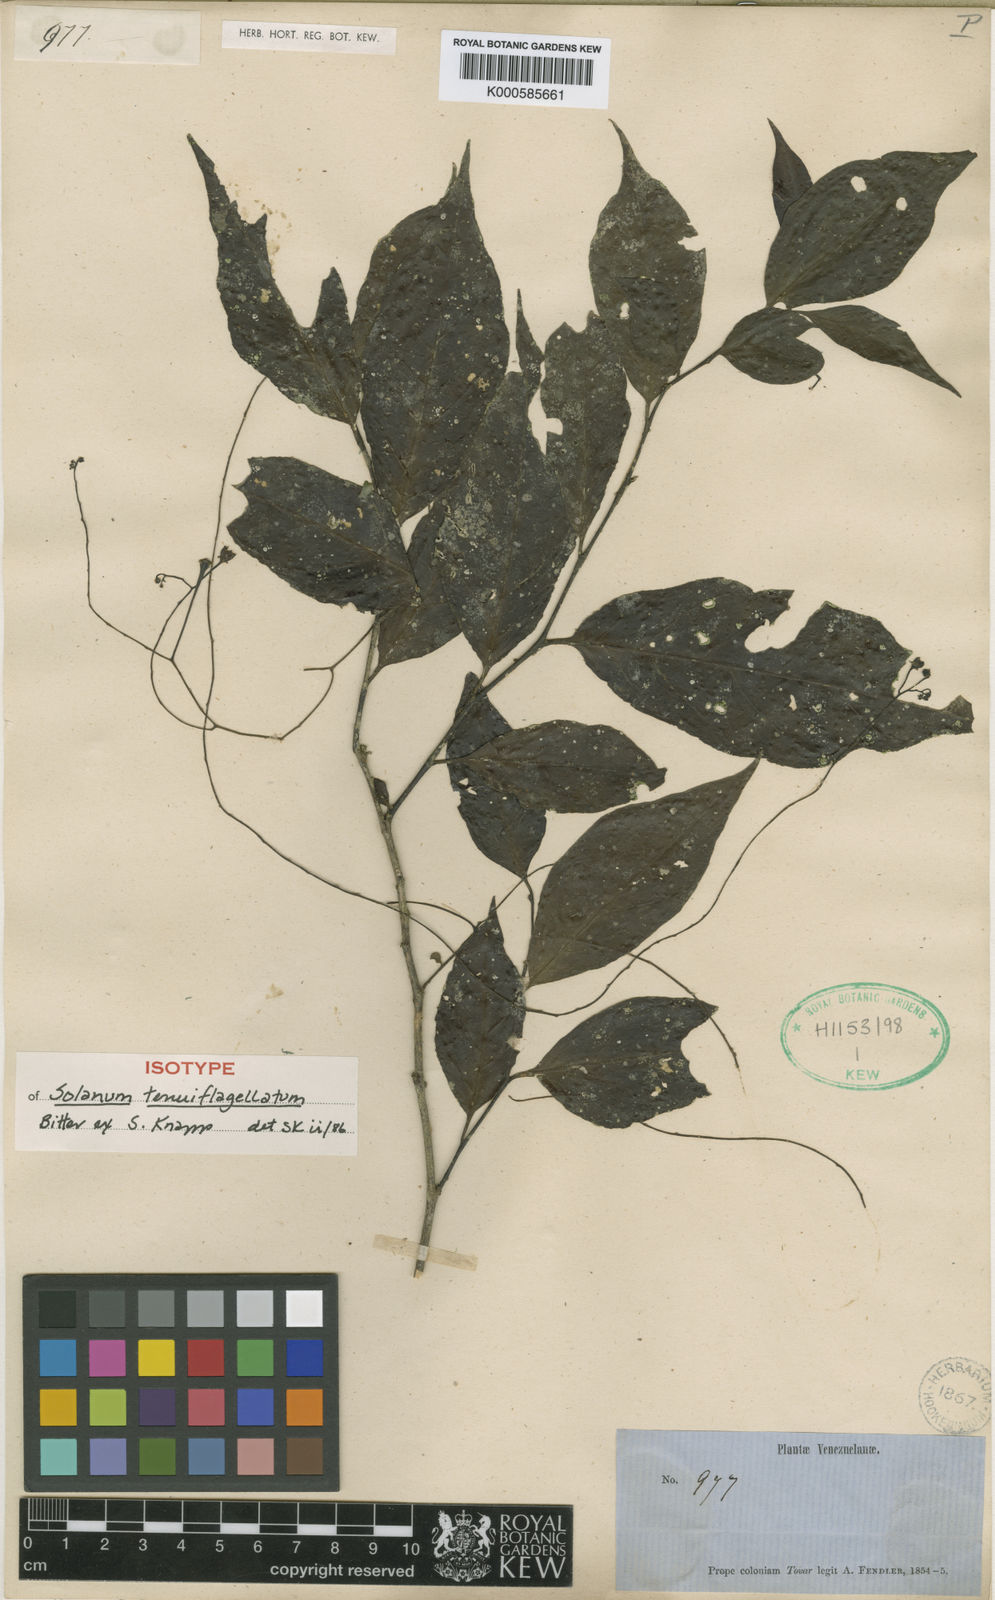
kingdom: Plantae
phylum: Tracheophyta
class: Magnoliopsida
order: Solanales
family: Solanaceae
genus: Solanum
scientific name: Solanum tenuiflagellatum
